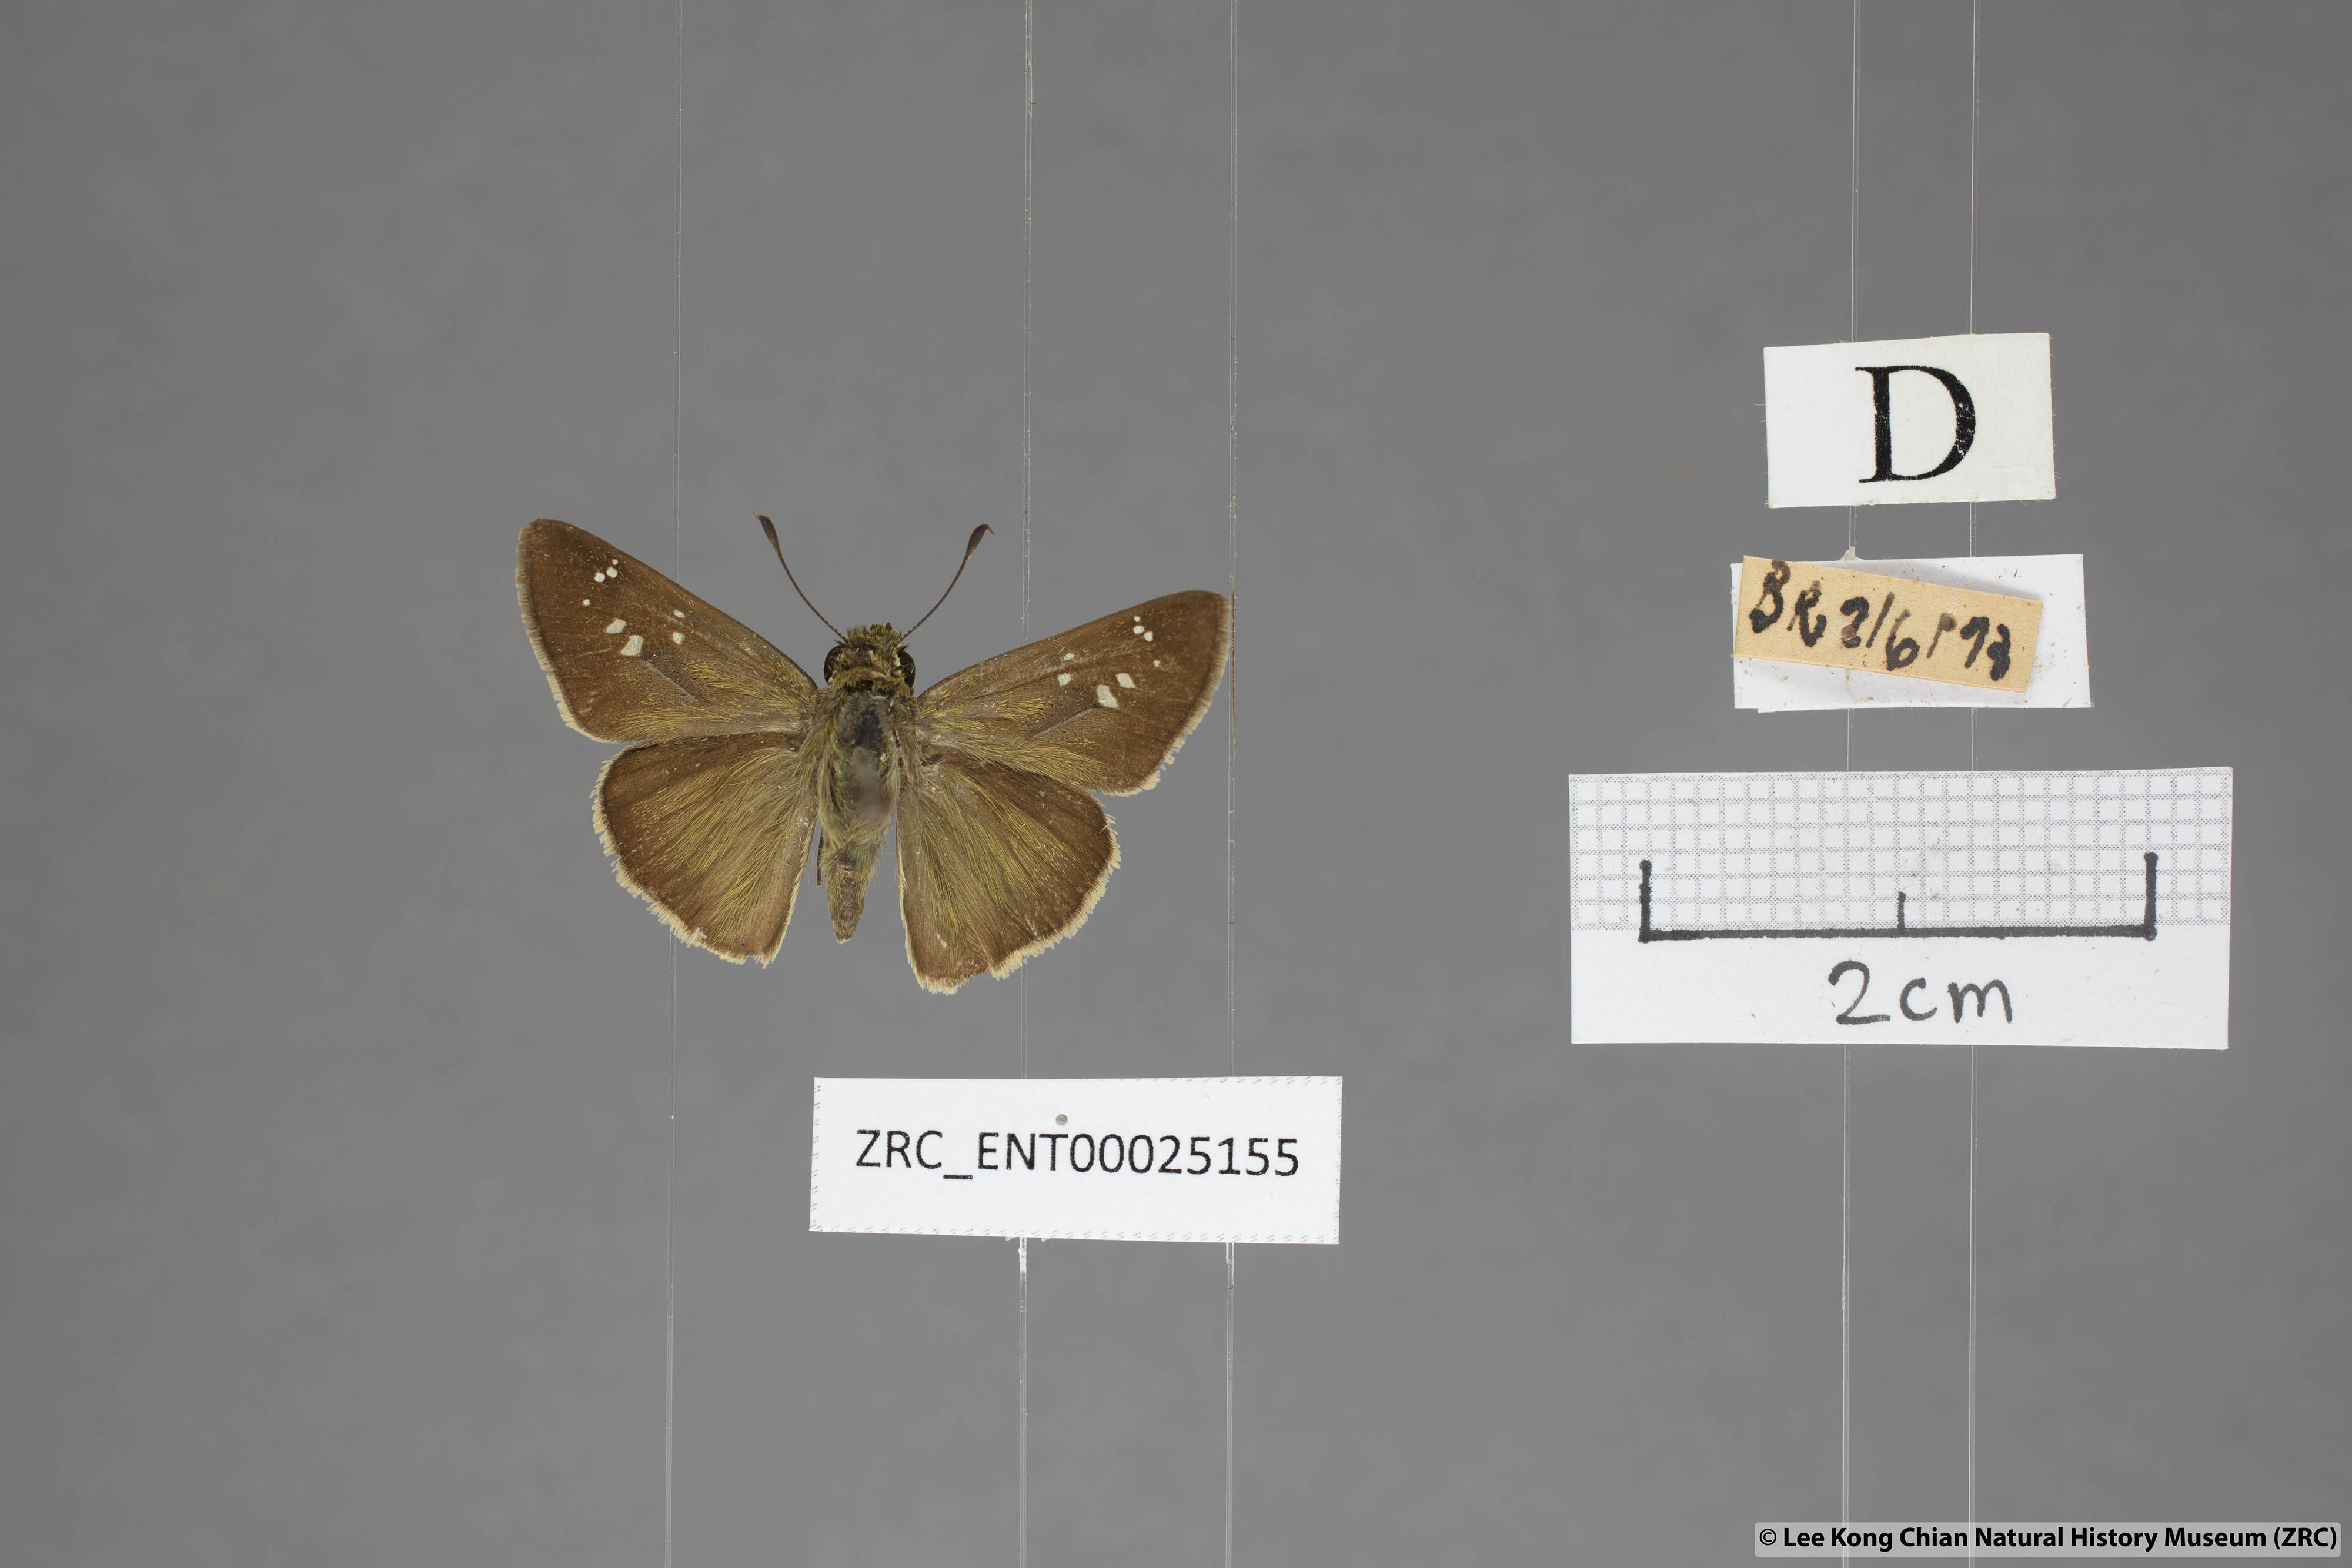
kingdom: Animalia
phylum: Arthropoda
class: Insecta
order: Lepidoptera
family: Hesperiidae
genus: Pelopidas
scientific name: Pelopidas mathias
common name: Black-branded swift
